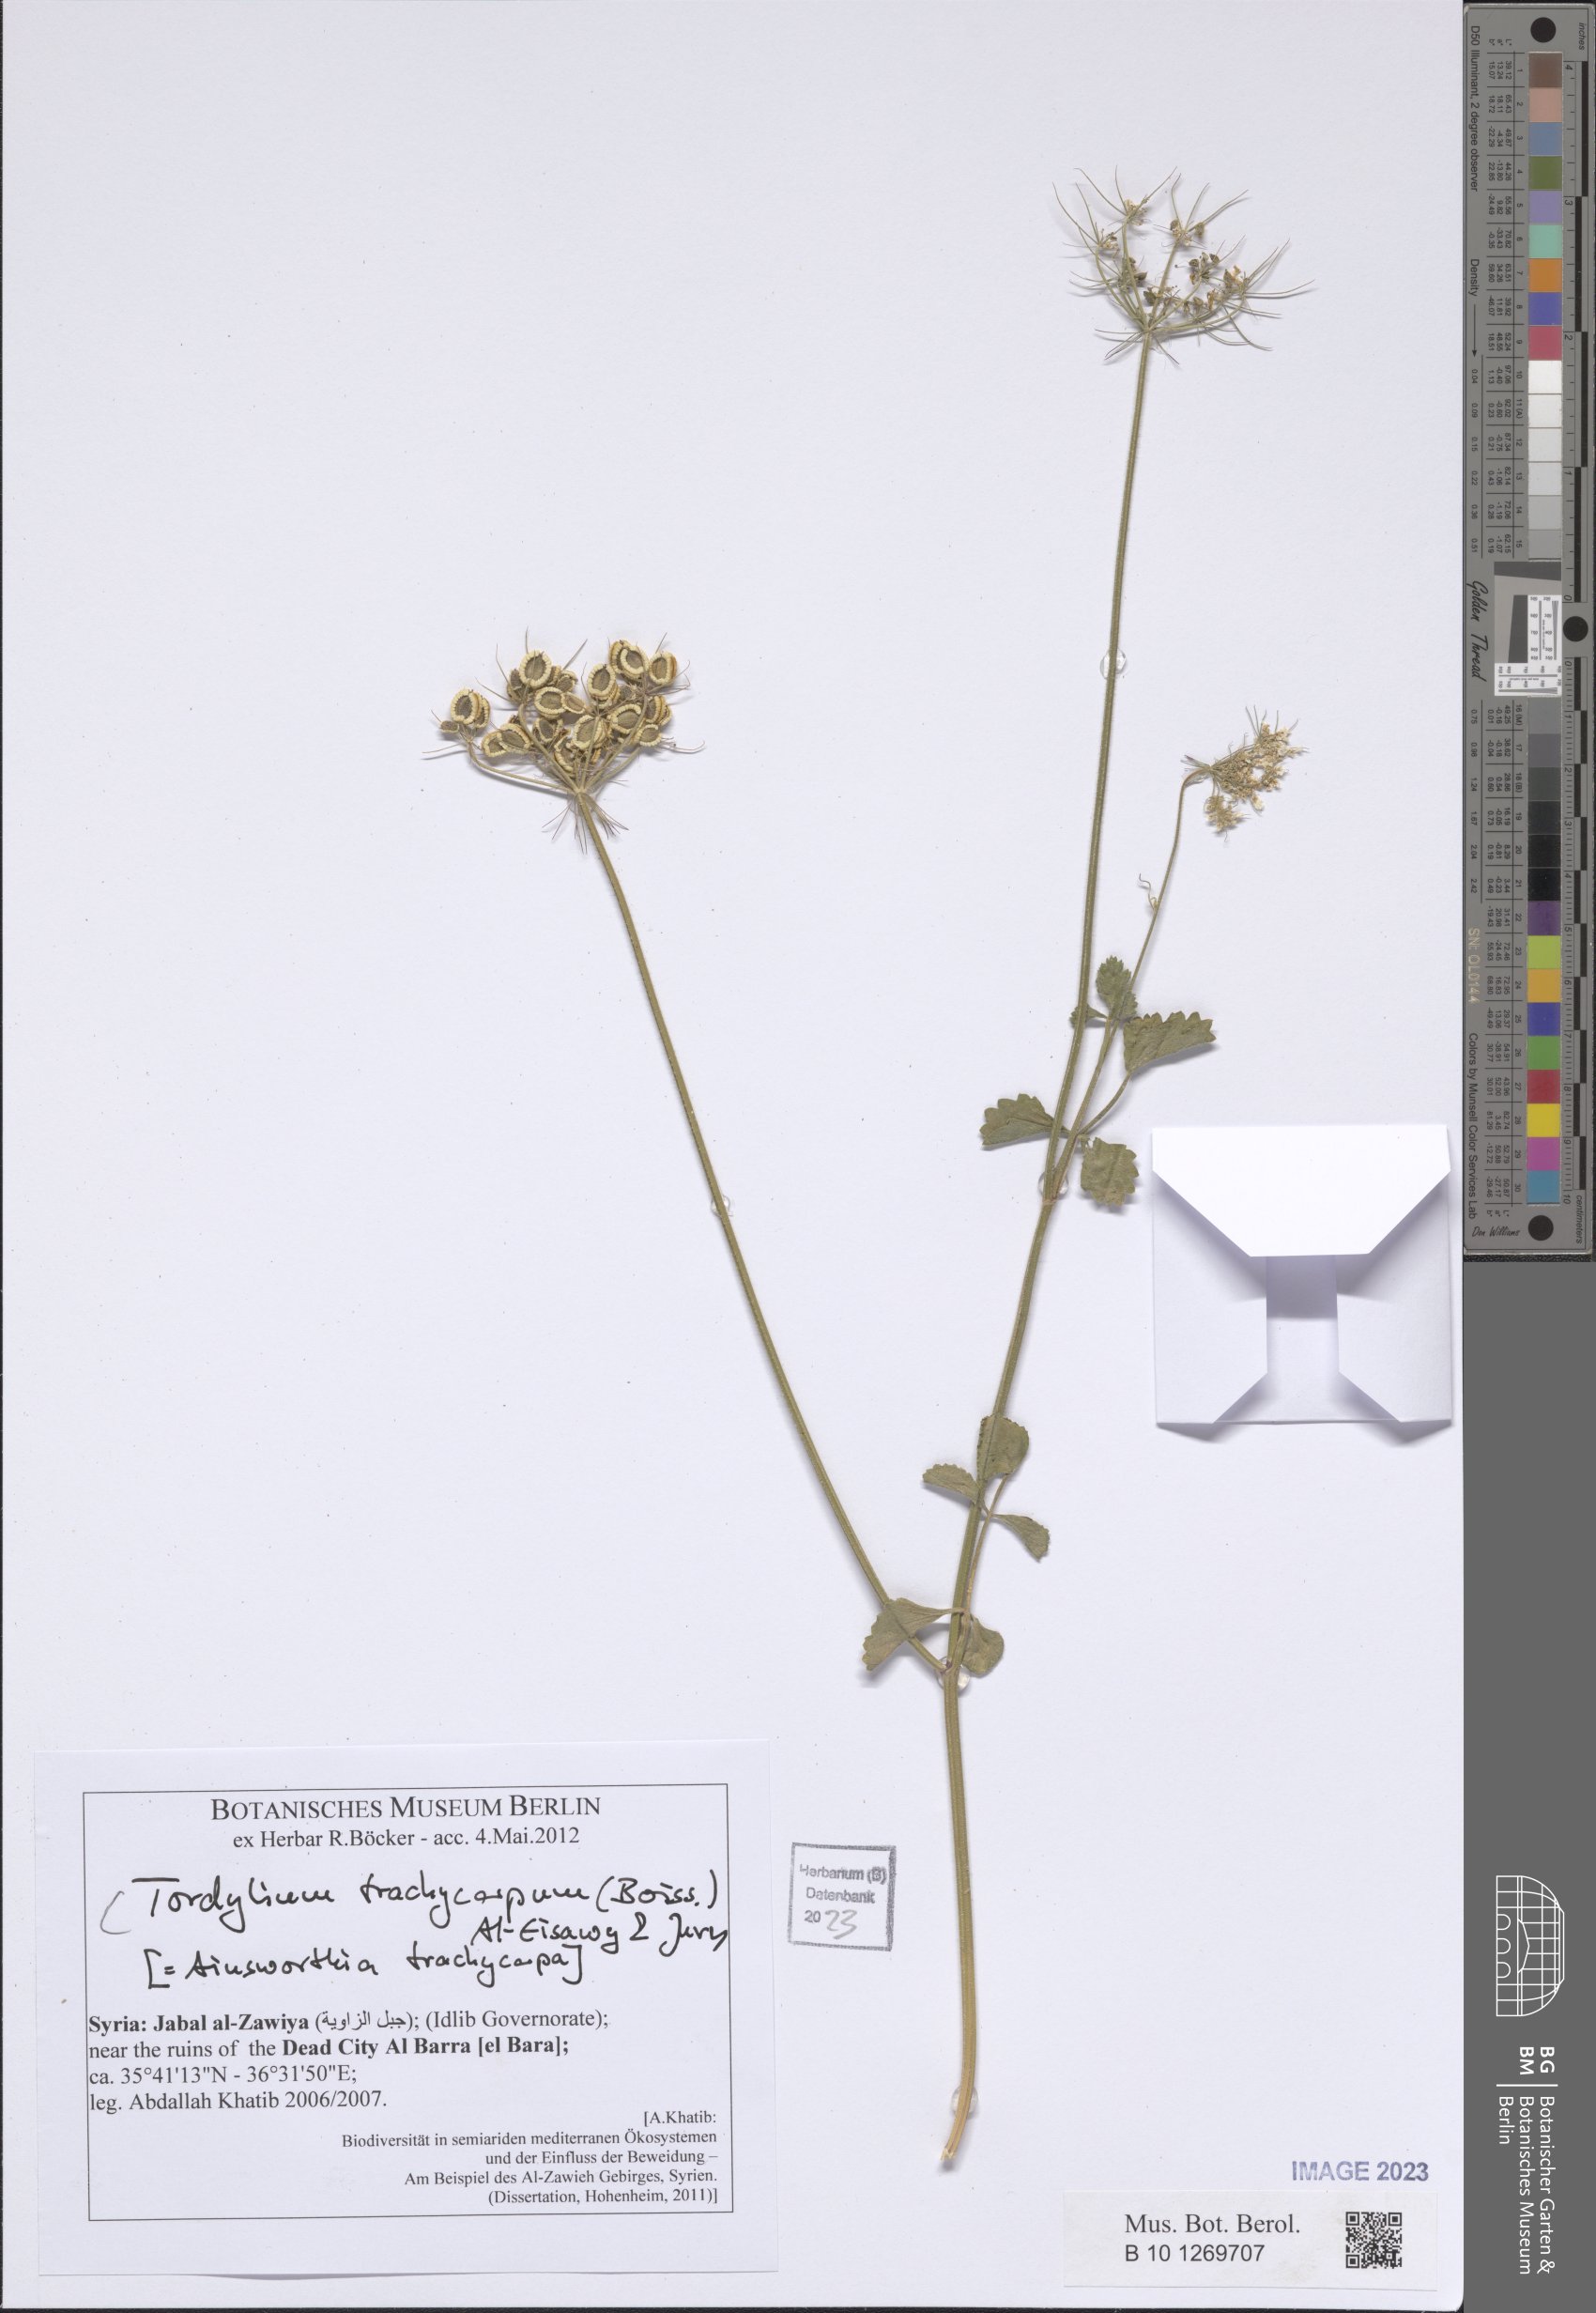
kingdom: Plantae
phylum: Tracheophyta
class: Magnoliopsida
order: Apiales
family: Apiaceae
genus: Ainsworthia
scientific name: Ainsworthia trachycarpa
